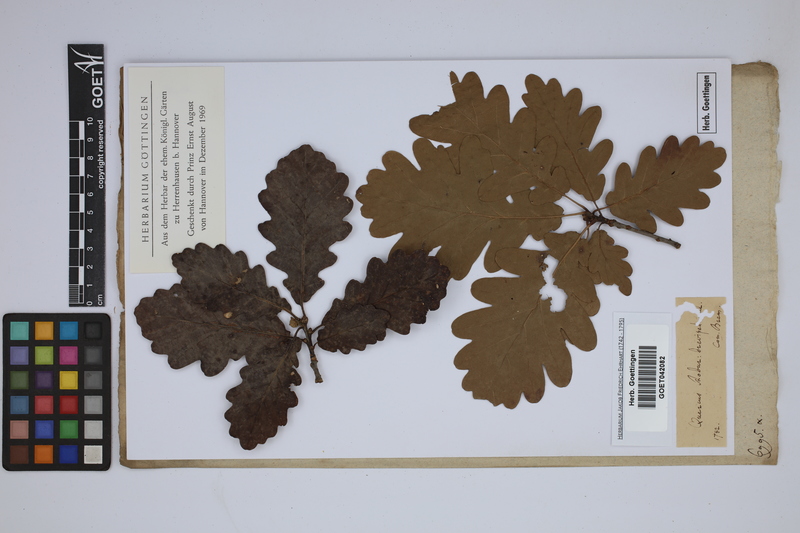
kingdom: Plantae
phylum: Tracheophyta
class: Magnoliopsida
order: Fagales
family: Fagaceae
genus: Quercus
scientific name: Quercus robur
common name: Pedunculate oak
